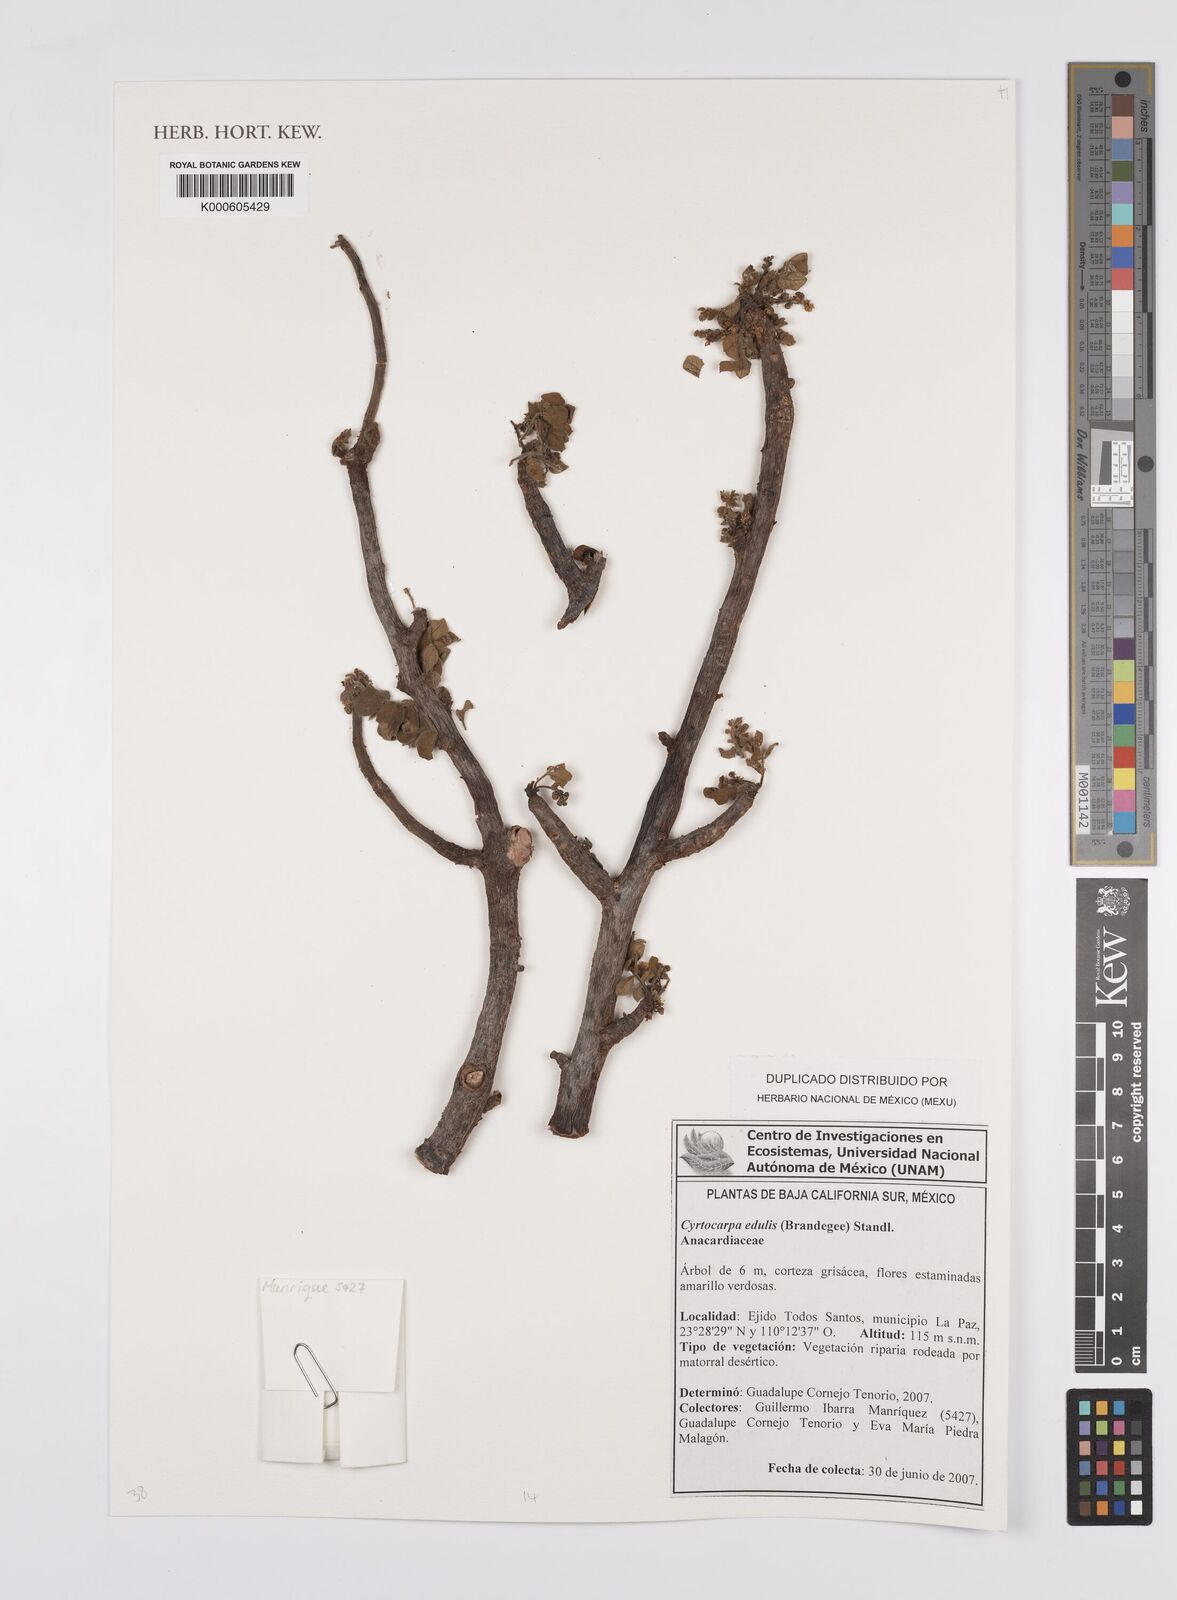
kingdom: Plantae
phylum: Tracheophyta
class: Magnoliopsida
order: Sapindales
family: Anacardiaceae
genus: Campnosperma
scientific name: Campnosperma
